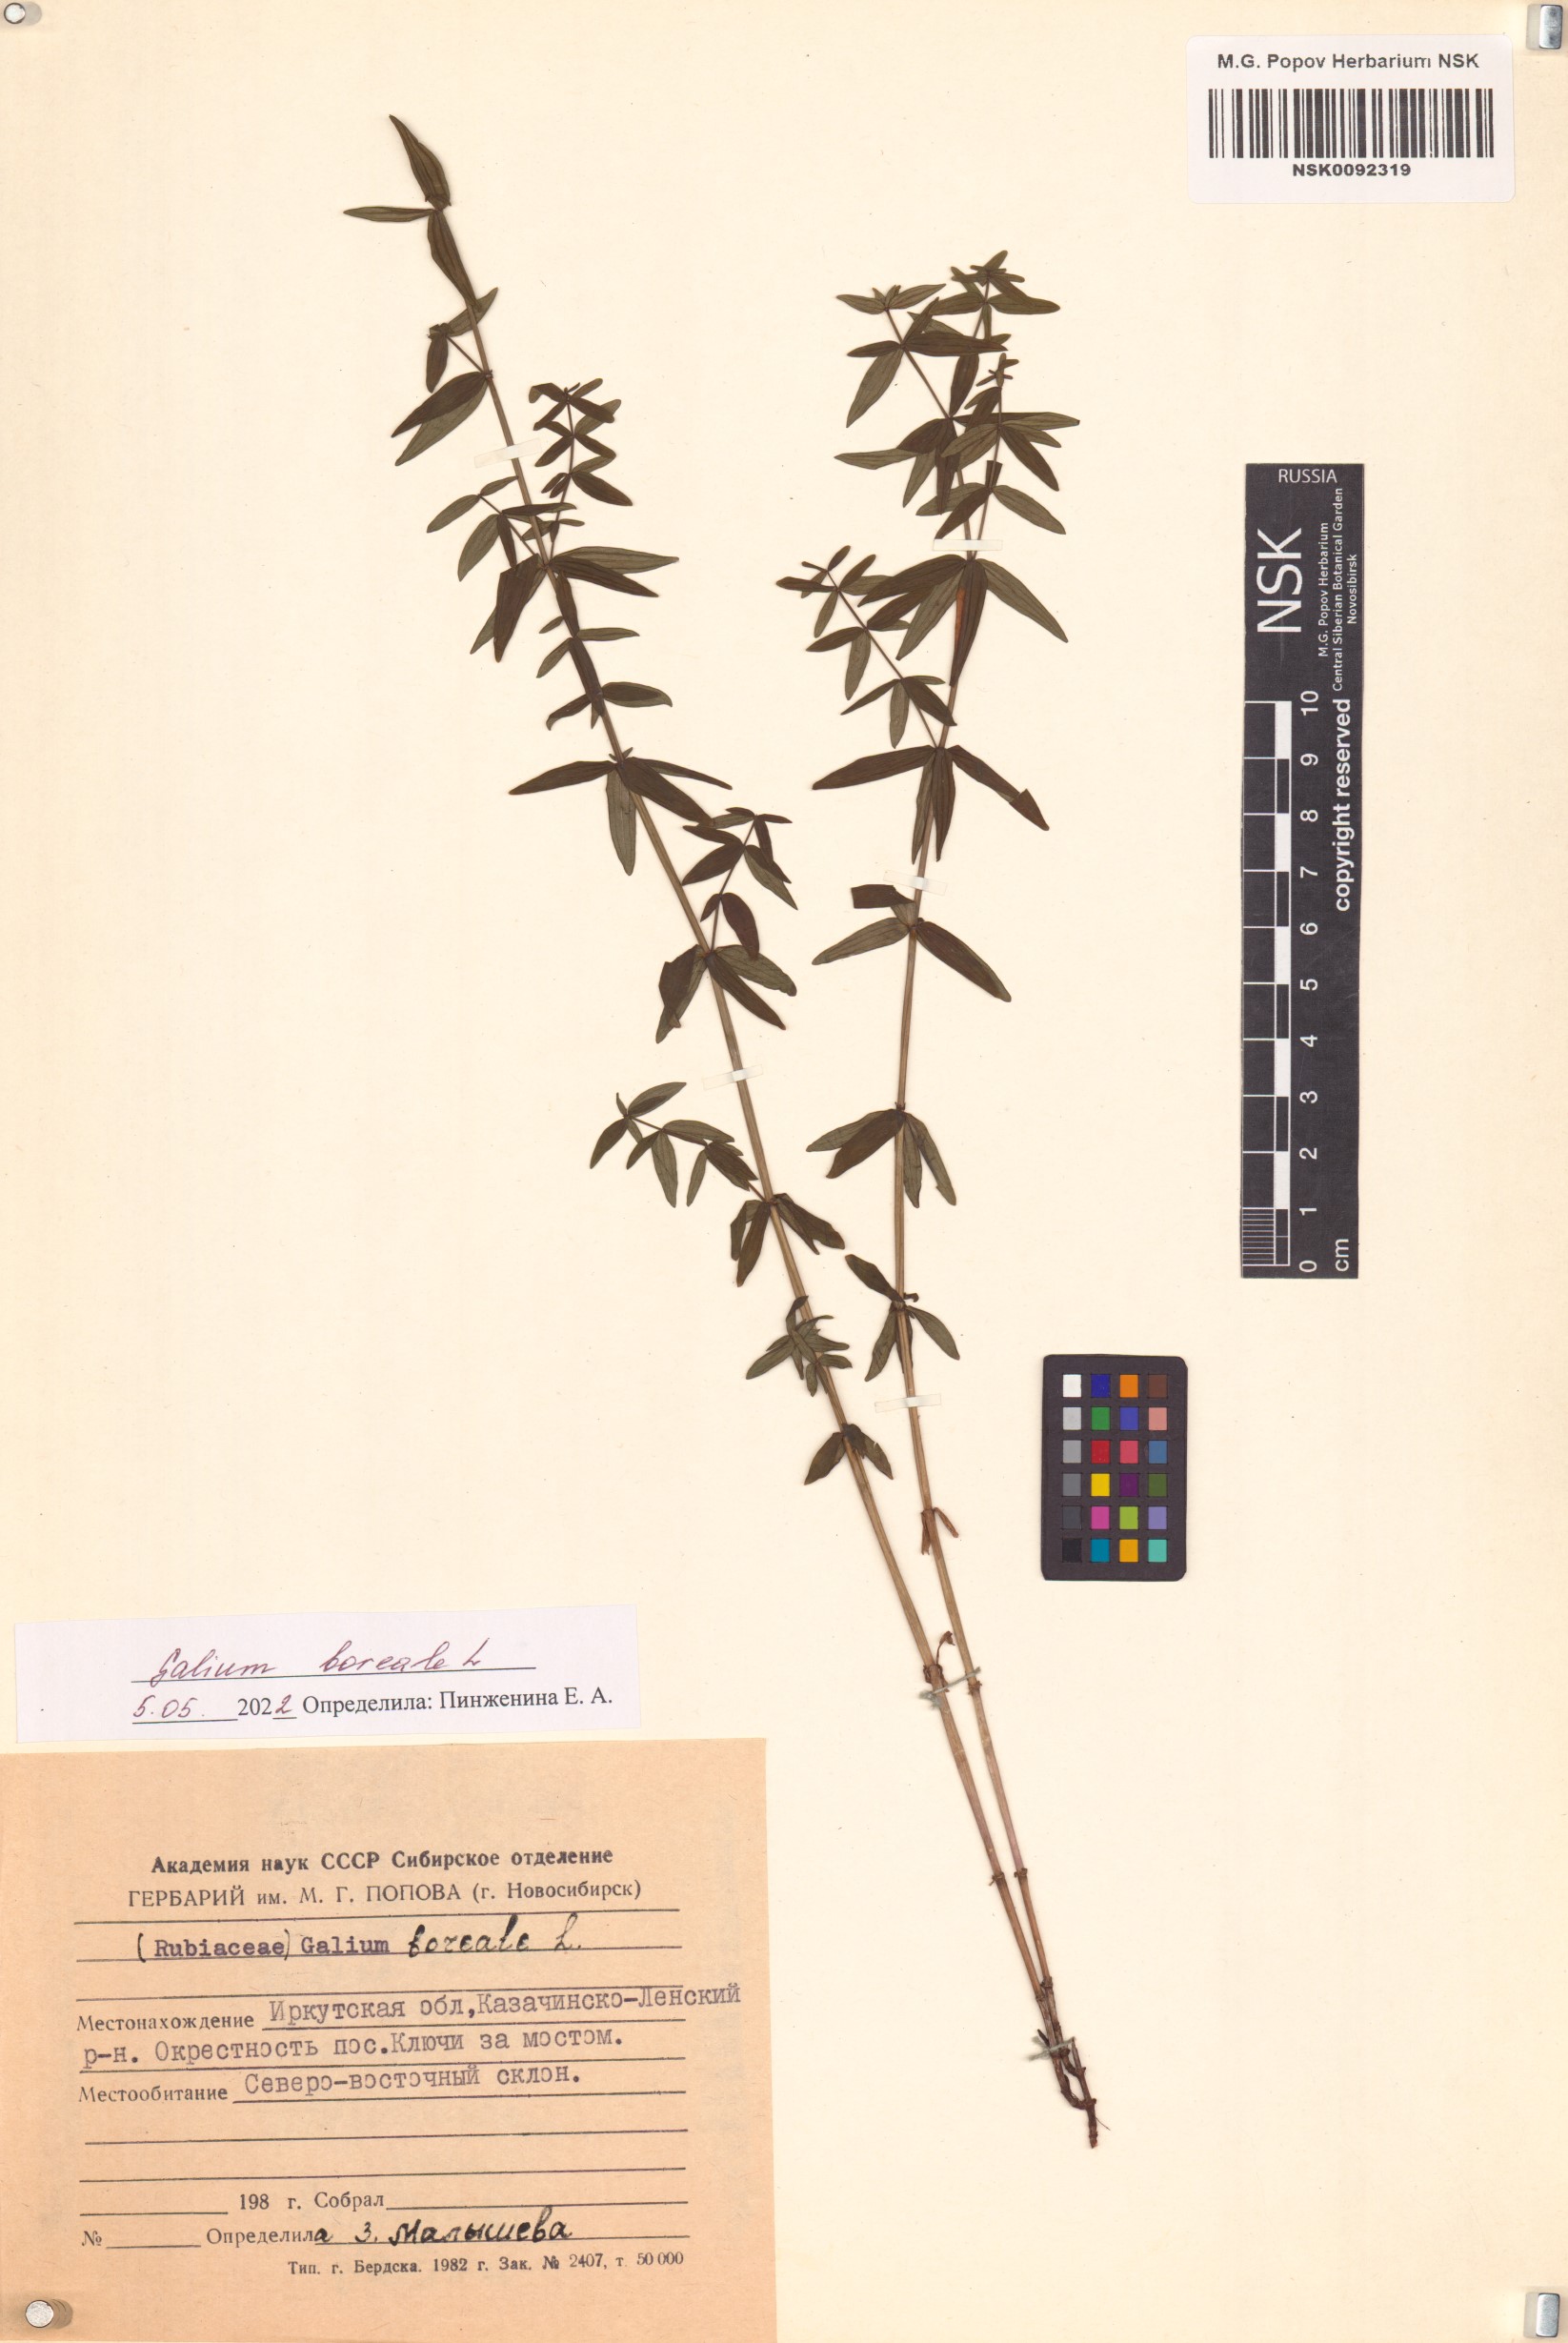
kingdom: Plantae
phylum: Tracheophyta
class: Magnoliopsida
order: Gentianales
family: Rubiaceae
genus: Galium
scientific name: Galium boreale
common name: Northern bedstraw
